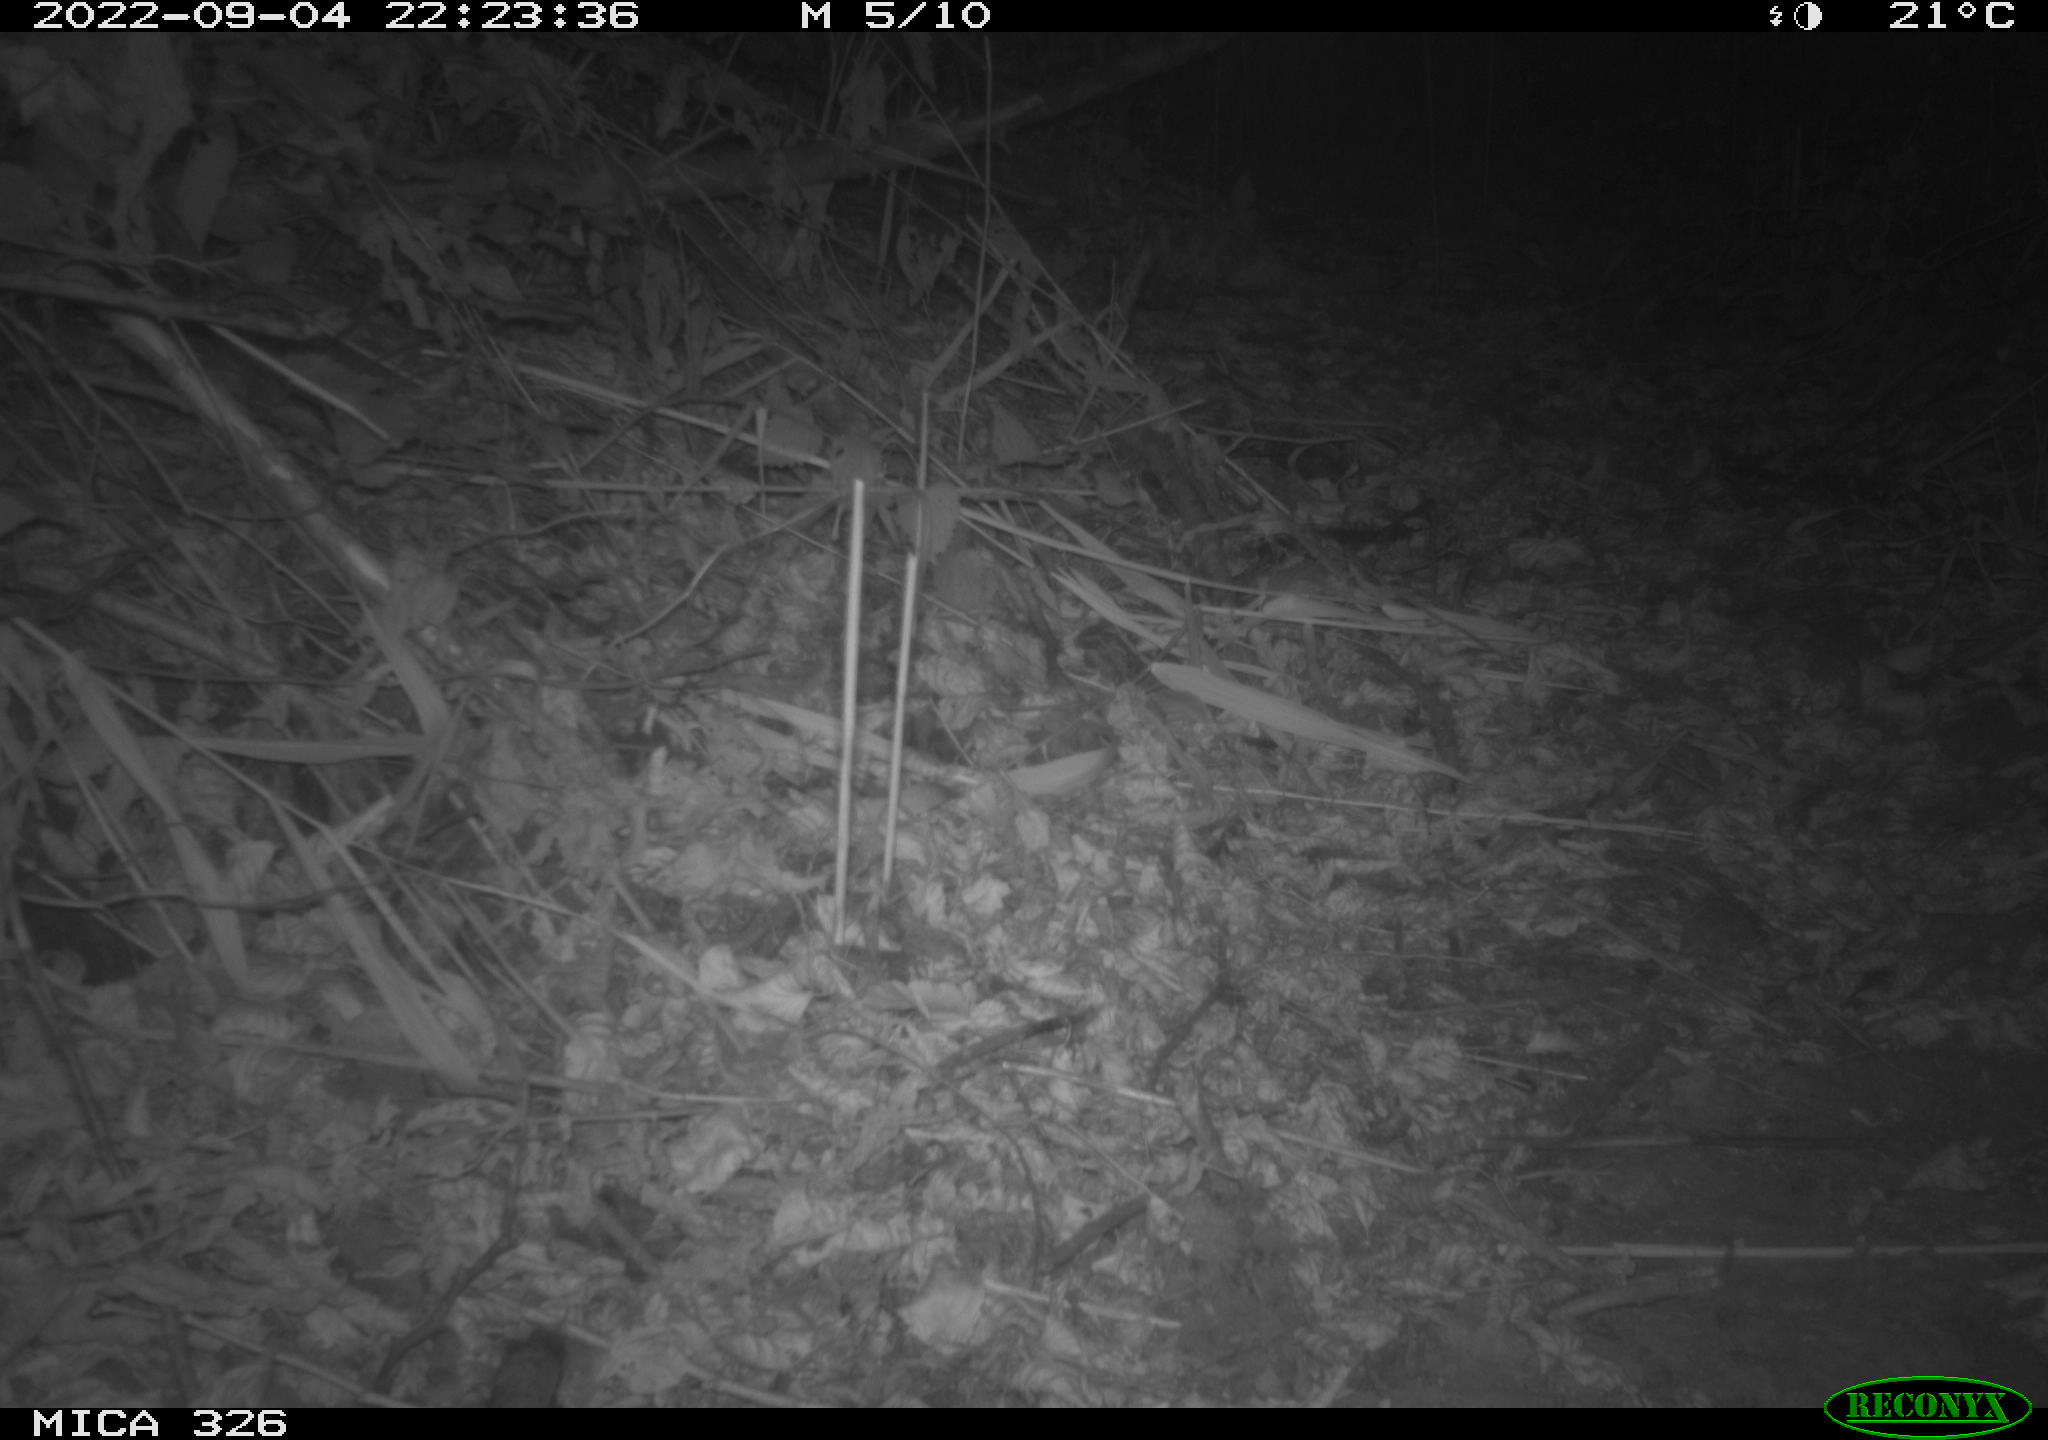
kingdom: Animalia
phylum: Chordata
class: Mammalia
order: Carnivora
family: Mustelidae
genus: Mustela
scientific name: Mustela putorius
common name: European polecat
